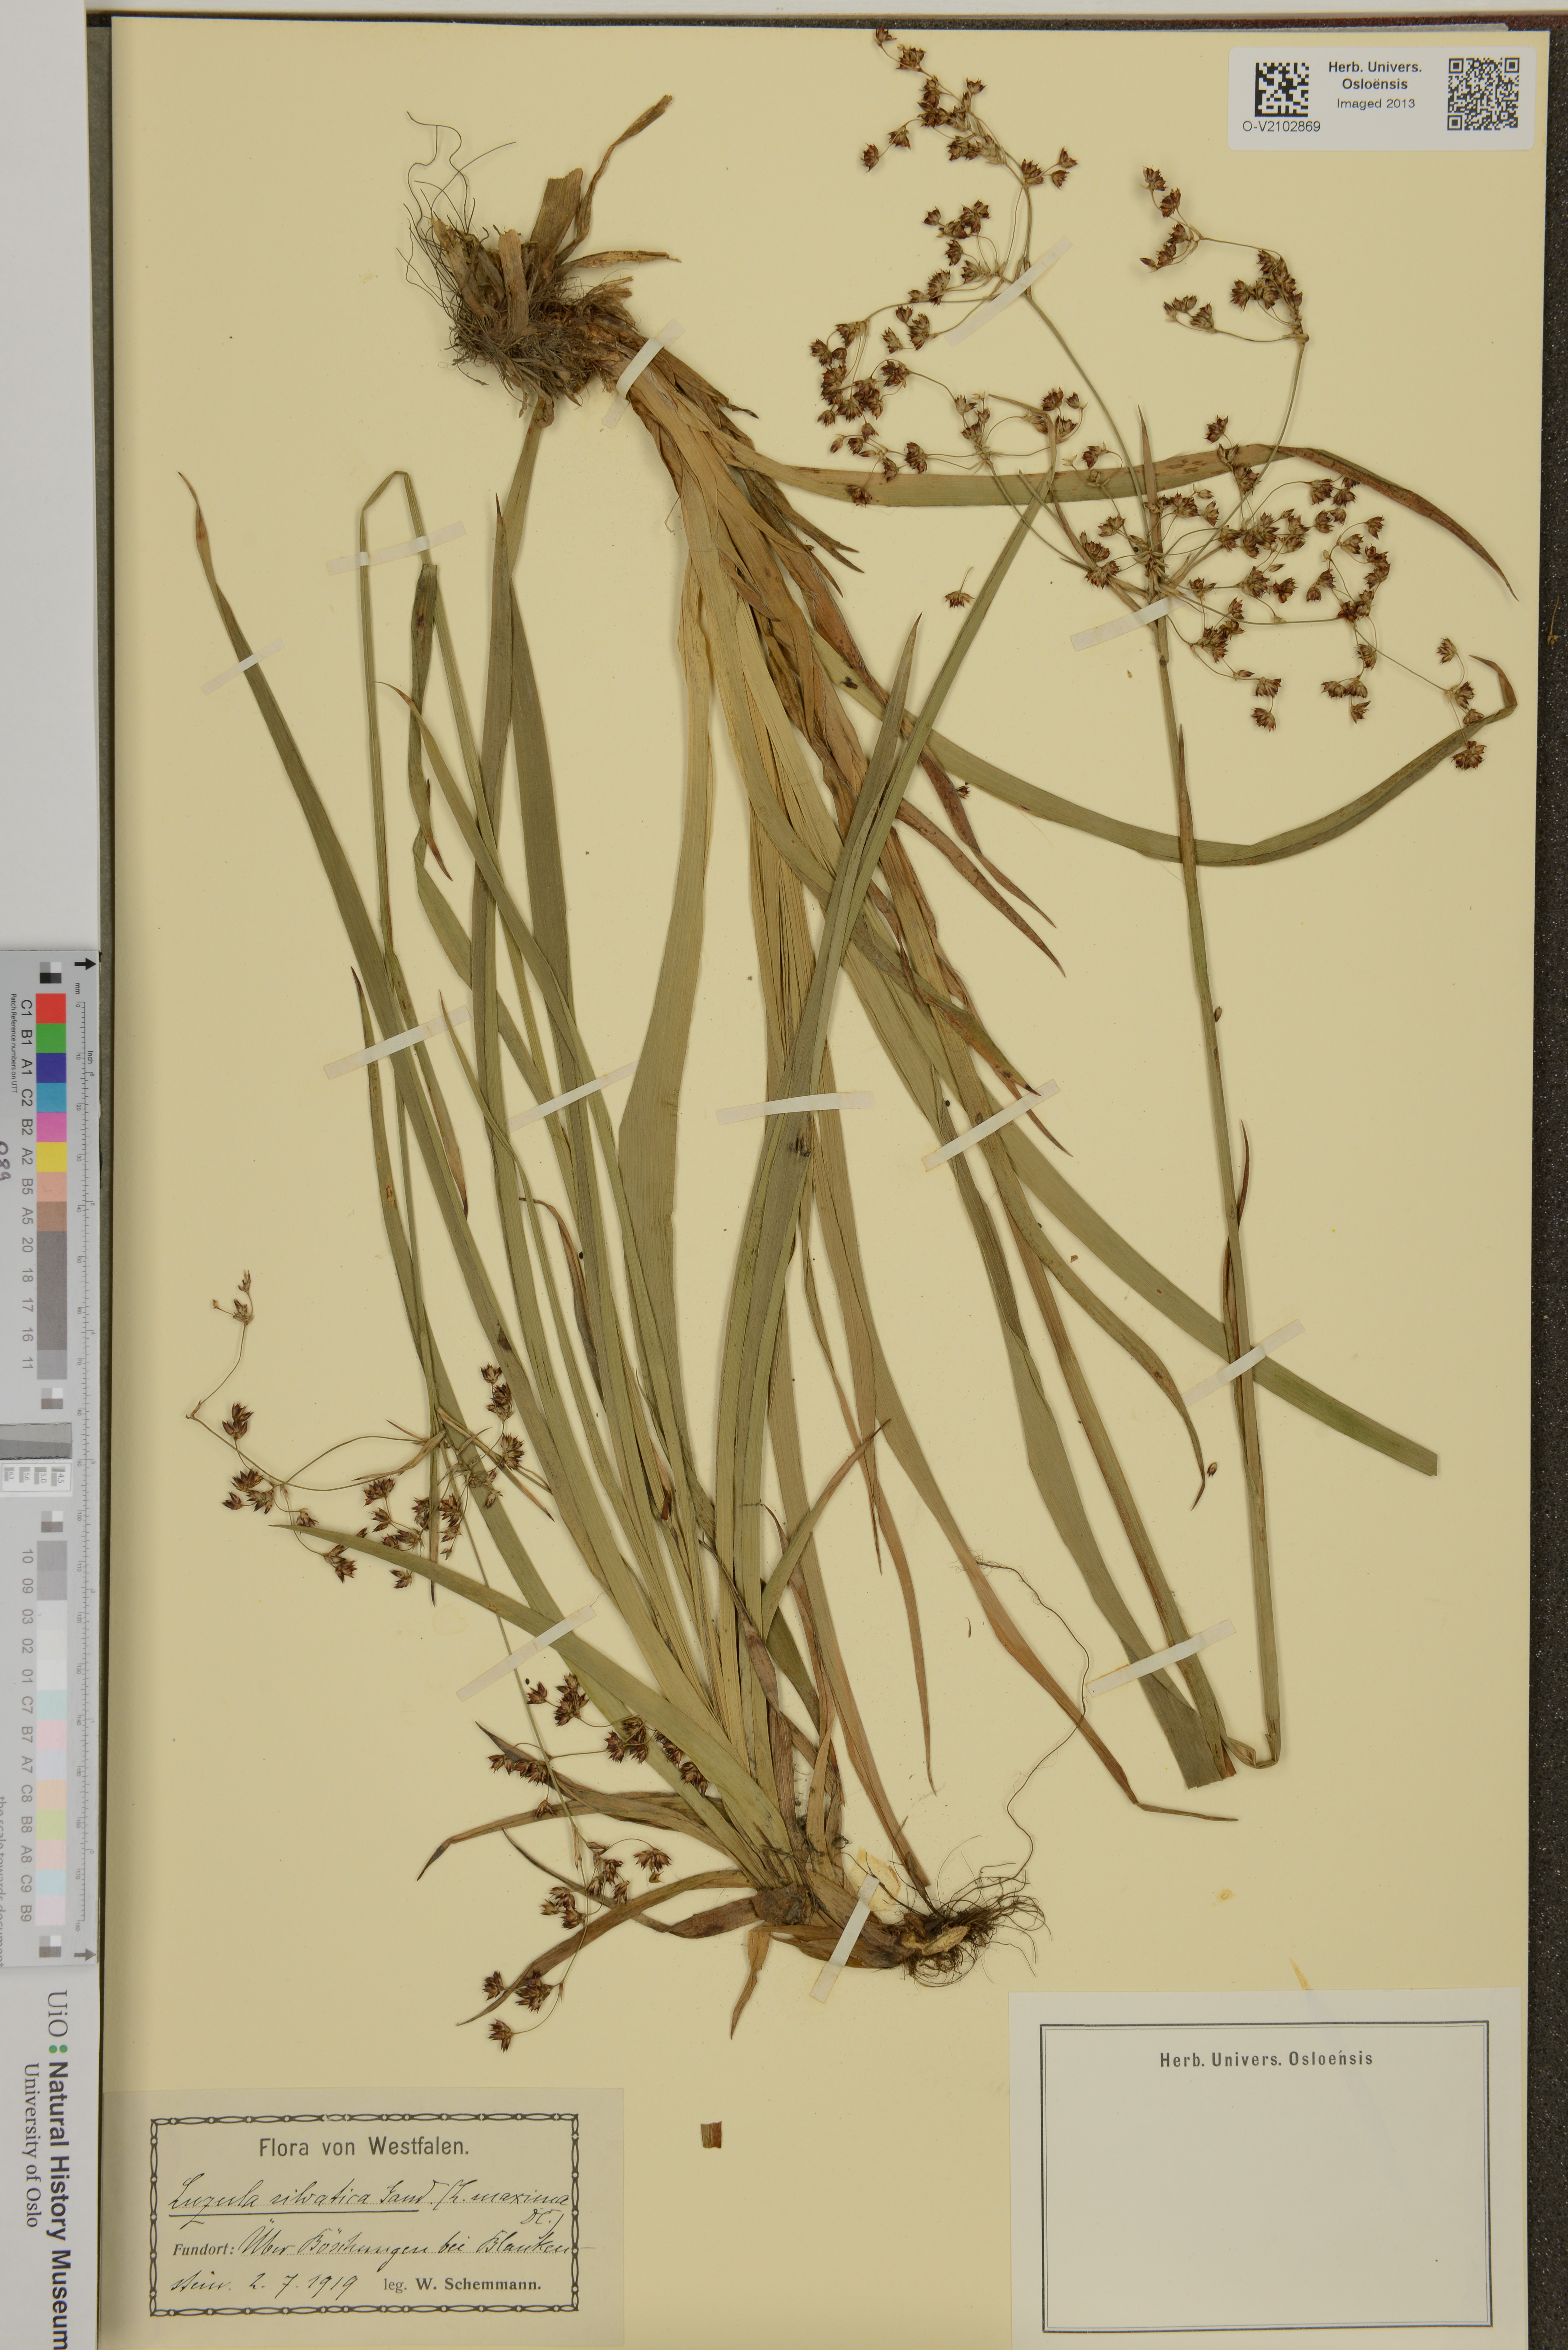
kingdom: Plantae
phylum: Tracheophyta
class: Liliopsida
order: Poales
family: Juncaceae
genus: Luzula
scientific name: Luzula sylvatica
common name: Great wood-rush
